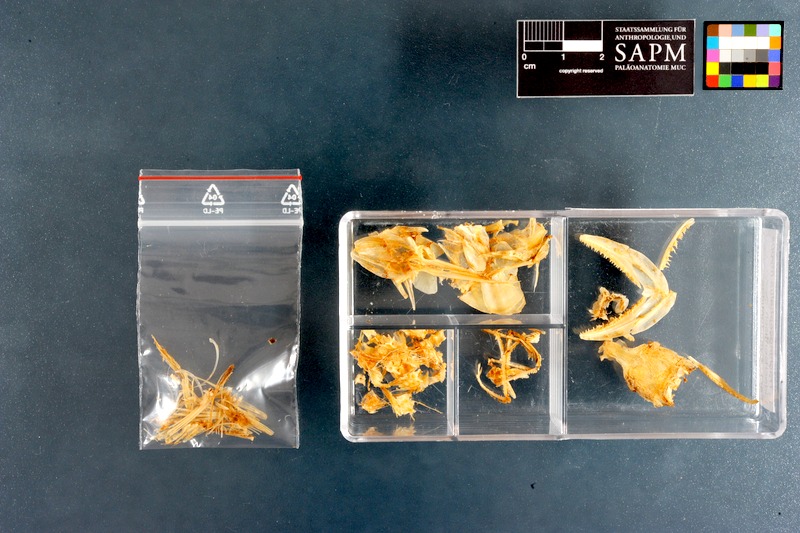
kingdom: Animalia
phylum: Chordata
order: Aulopiformes
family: Synodontidae
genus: Synodus
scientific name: Synodus myops
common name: Snakefish
